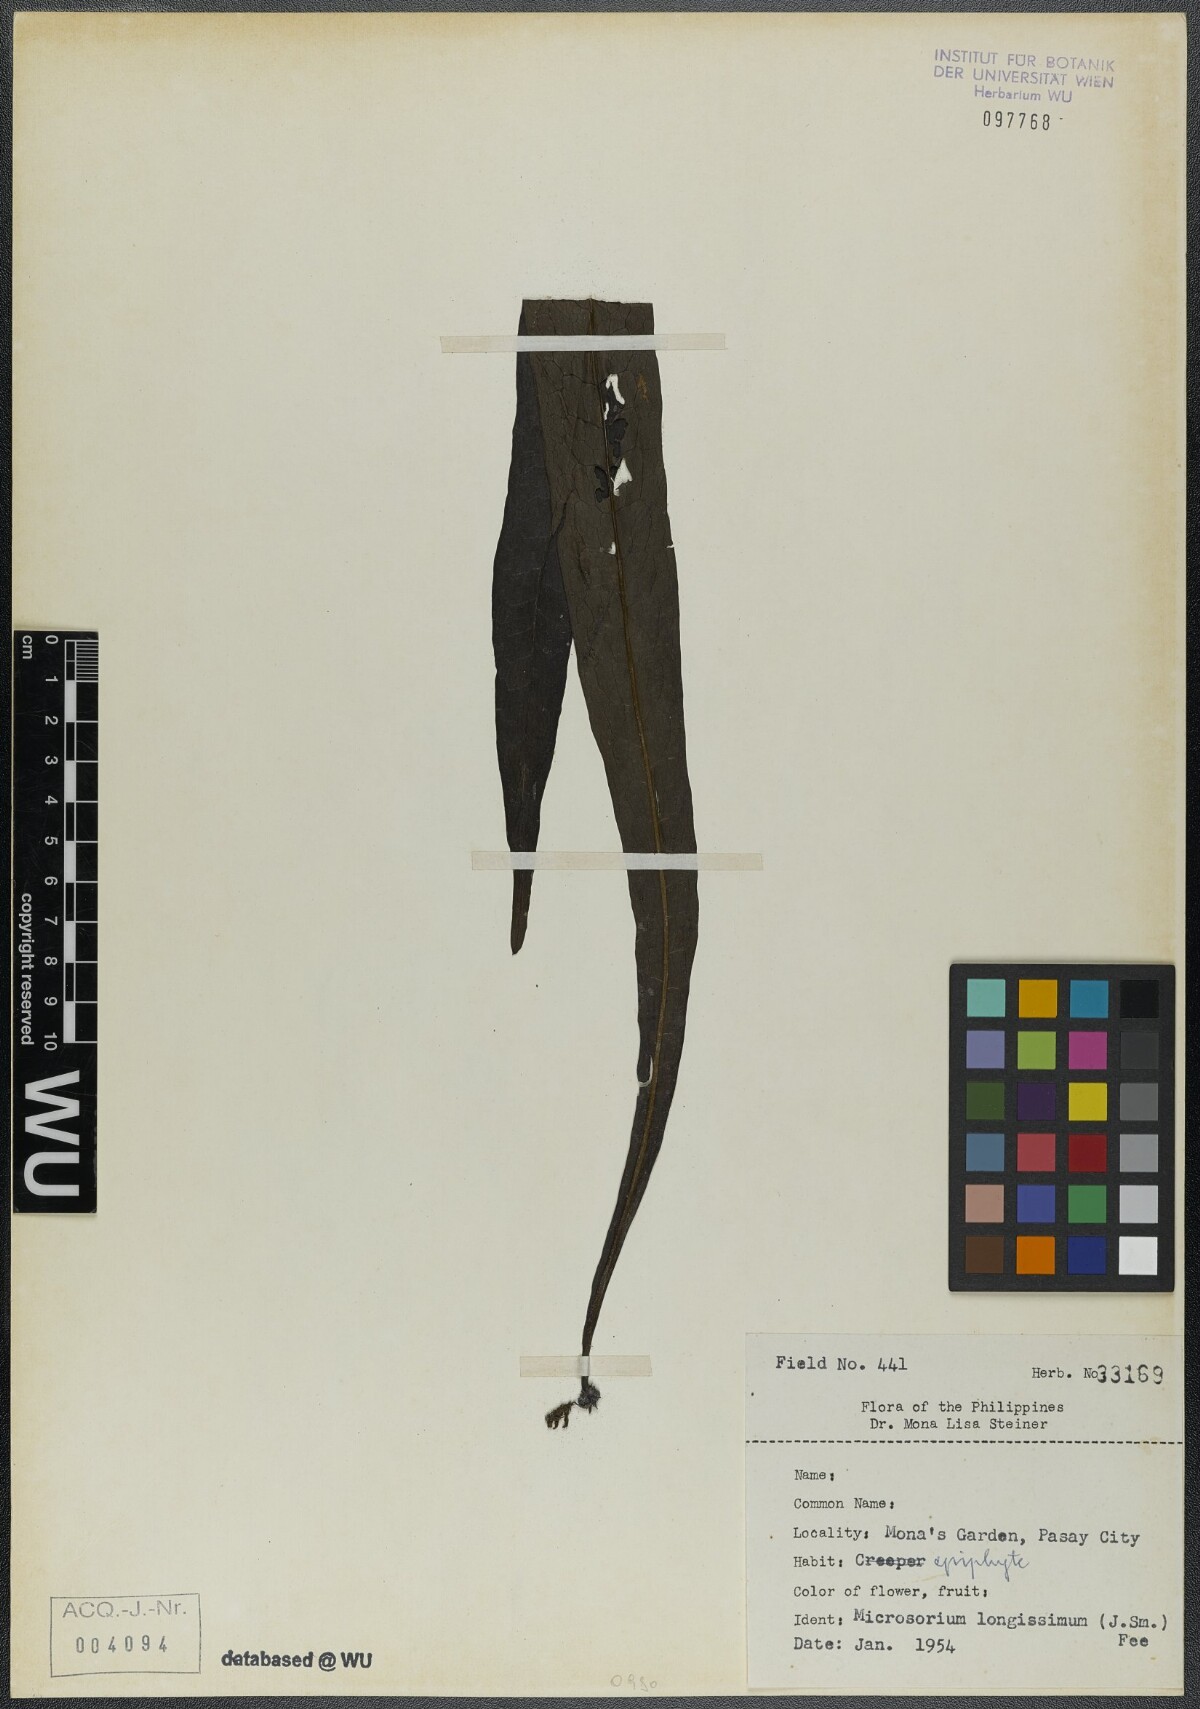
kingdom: Plantae
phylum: Tracheophyta
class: Polypodiopsida
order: Polypodiales
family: Polypodiaceae
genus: Microsorum
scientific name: Microsorum longissimum
